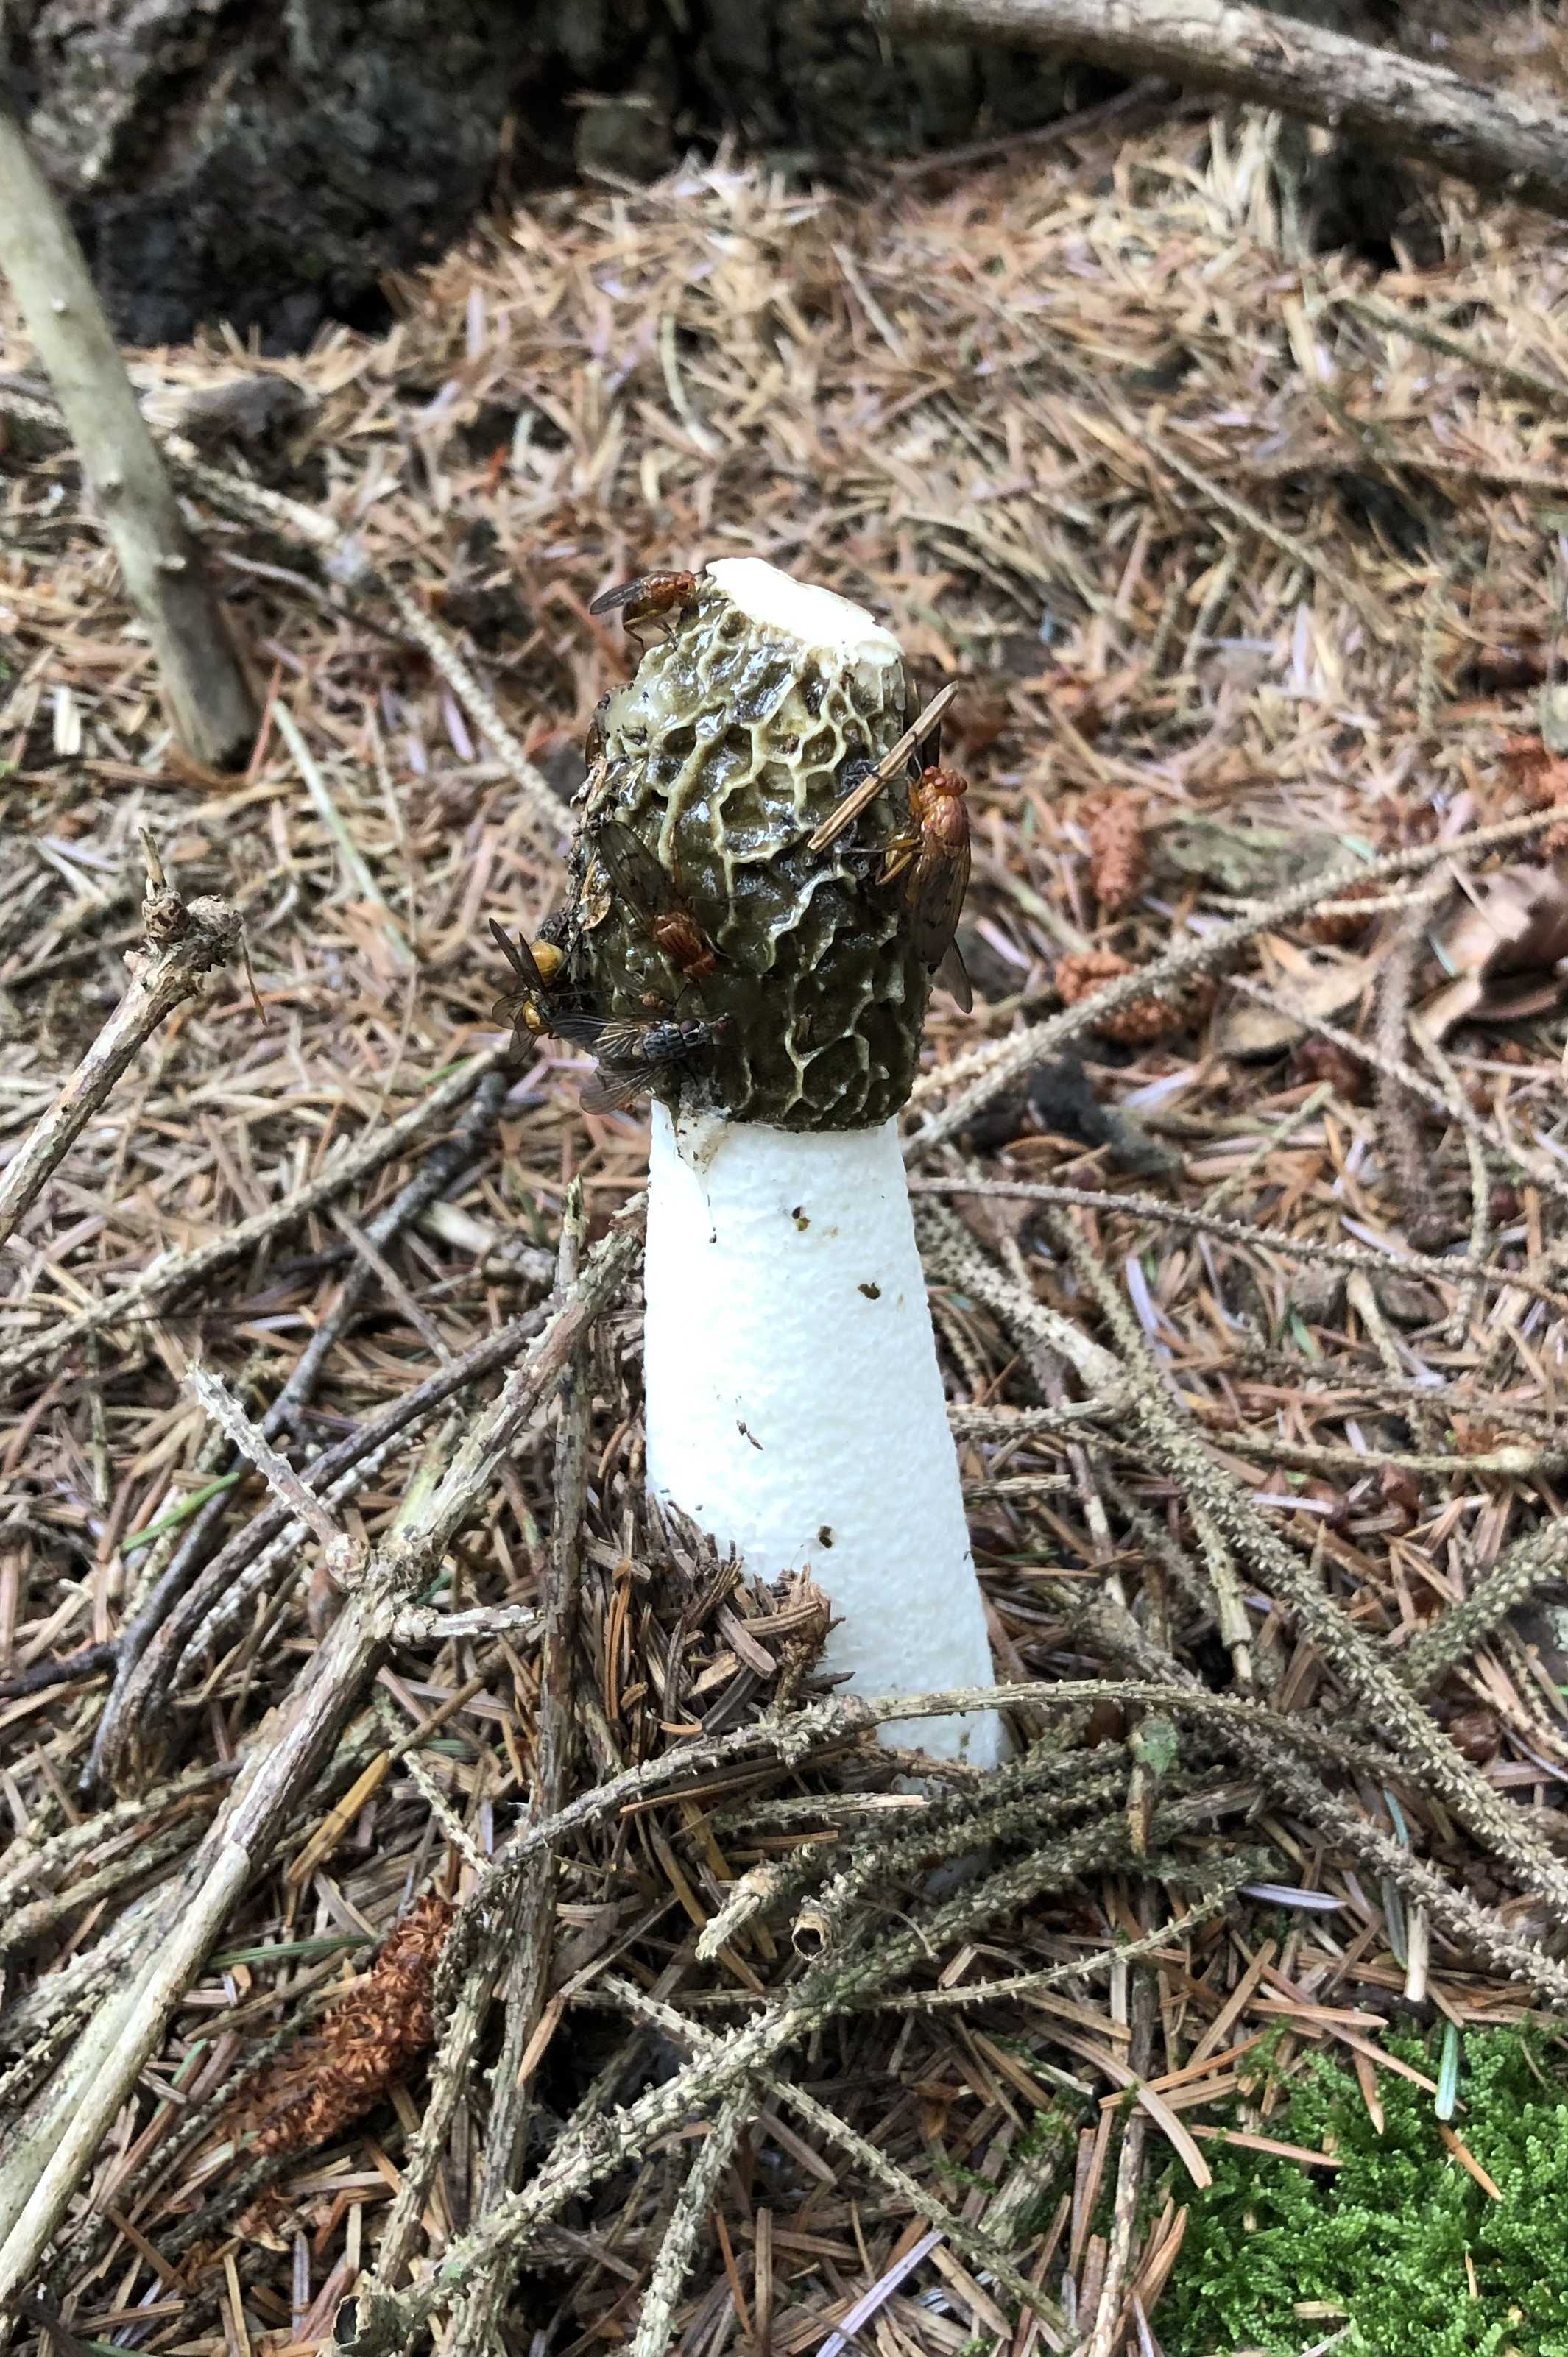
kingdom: Fungi
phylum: Basidiomycota
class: Agaricomycetes
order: Phallales
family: Phallaceae
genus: Phallus
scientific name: Phallus impudicus
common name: almindelig stinksvamp
